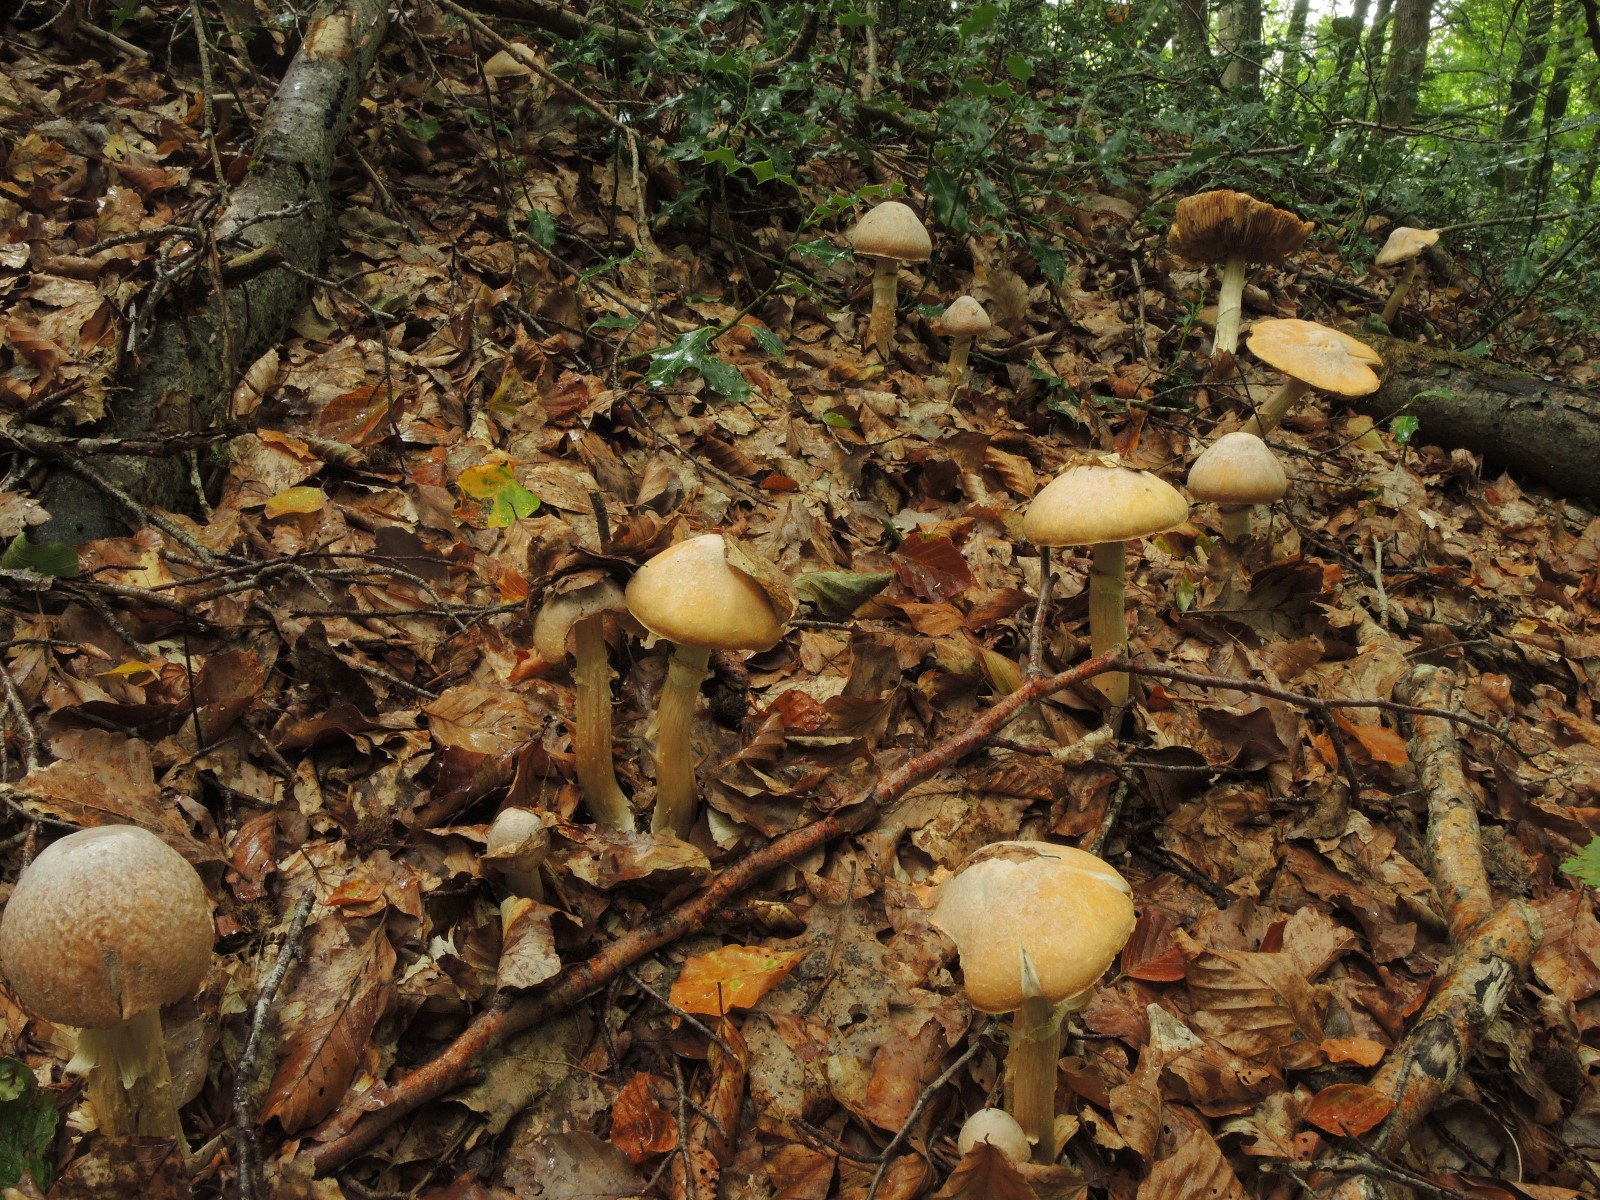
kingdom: Fungi
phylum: Basidiomycota
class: Agaricomycetes
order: Agaricales
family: Cortinariaceae
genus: Cortinarius
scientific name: Cortinarius caperatus
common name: klidhat
